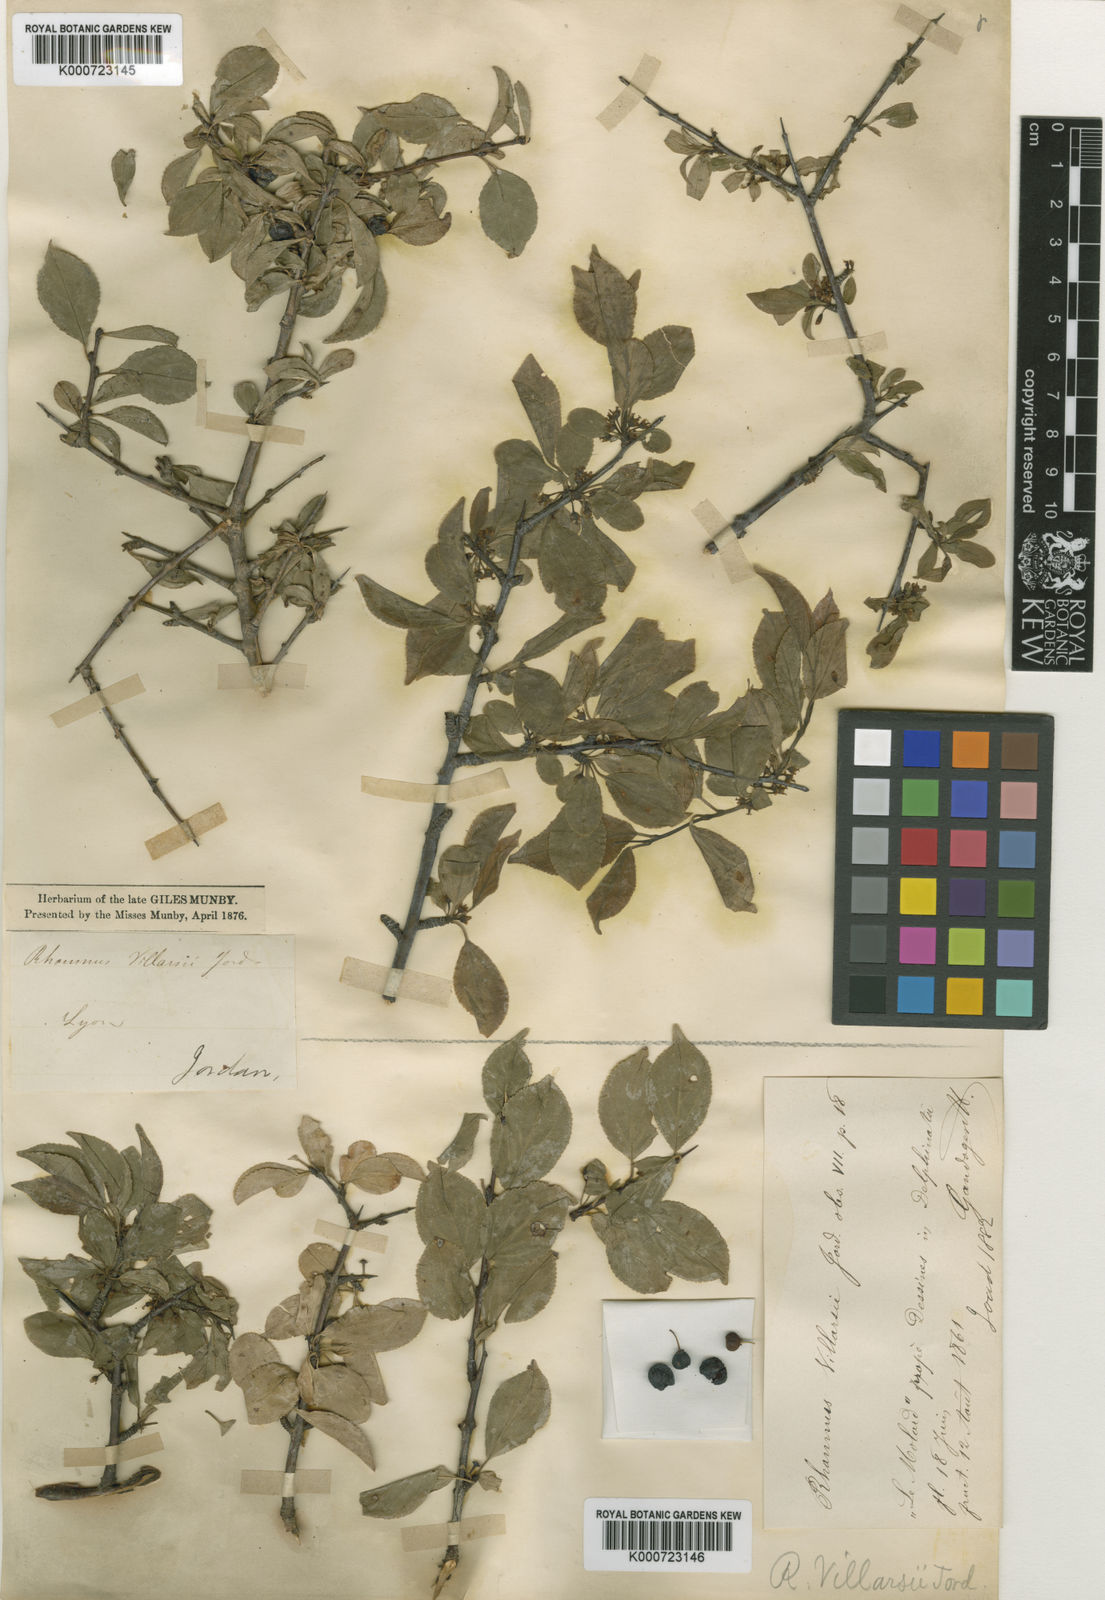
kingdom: Plantae
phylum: Tracheophyta
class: Magnoliopsida
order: Rosales
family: Rhamnaceae
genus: Rhamnus
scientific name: Rhamnus saxatilis
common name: Rock buckthorn
